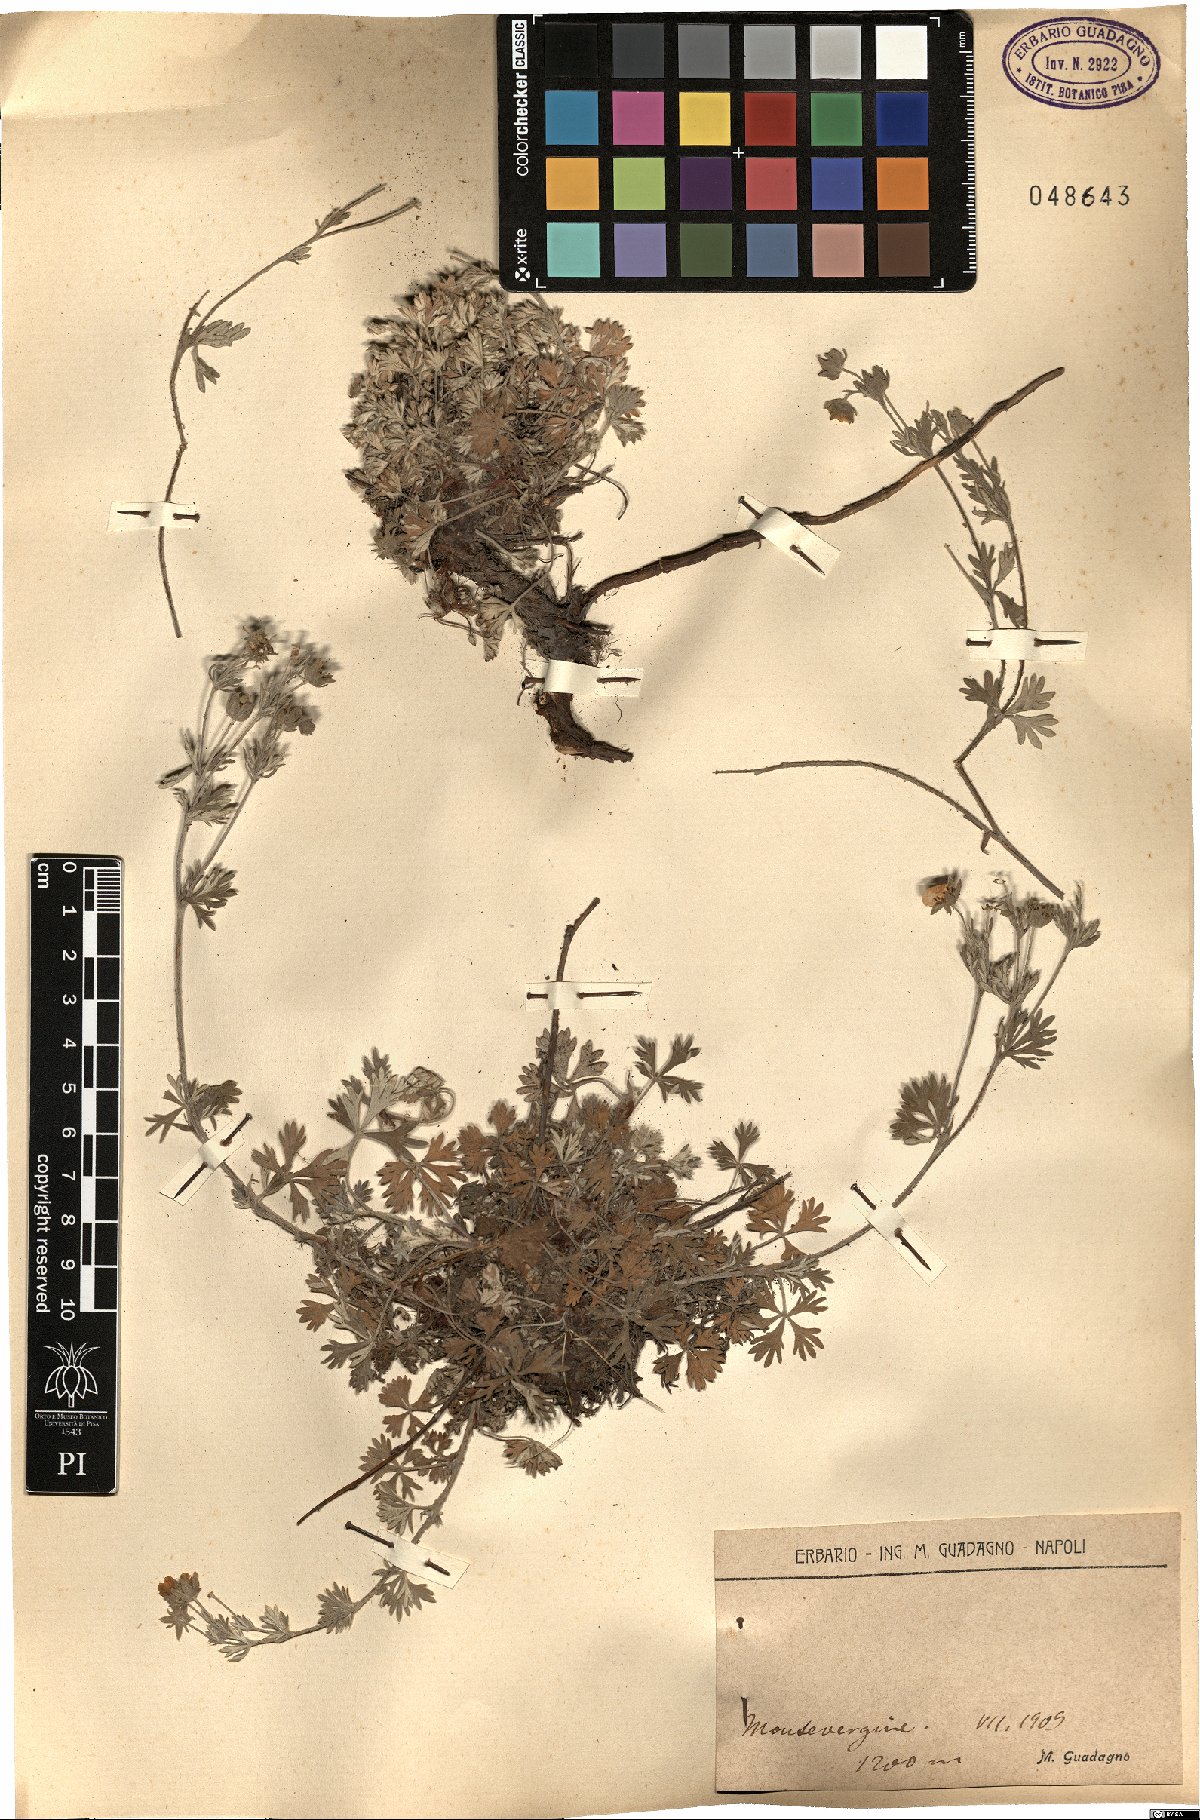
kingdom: Plantae
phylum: Tracheophyta
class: Magnoliopsida
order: Rosales
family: Rosaceae
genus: Potentilla
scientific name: Potentilla
